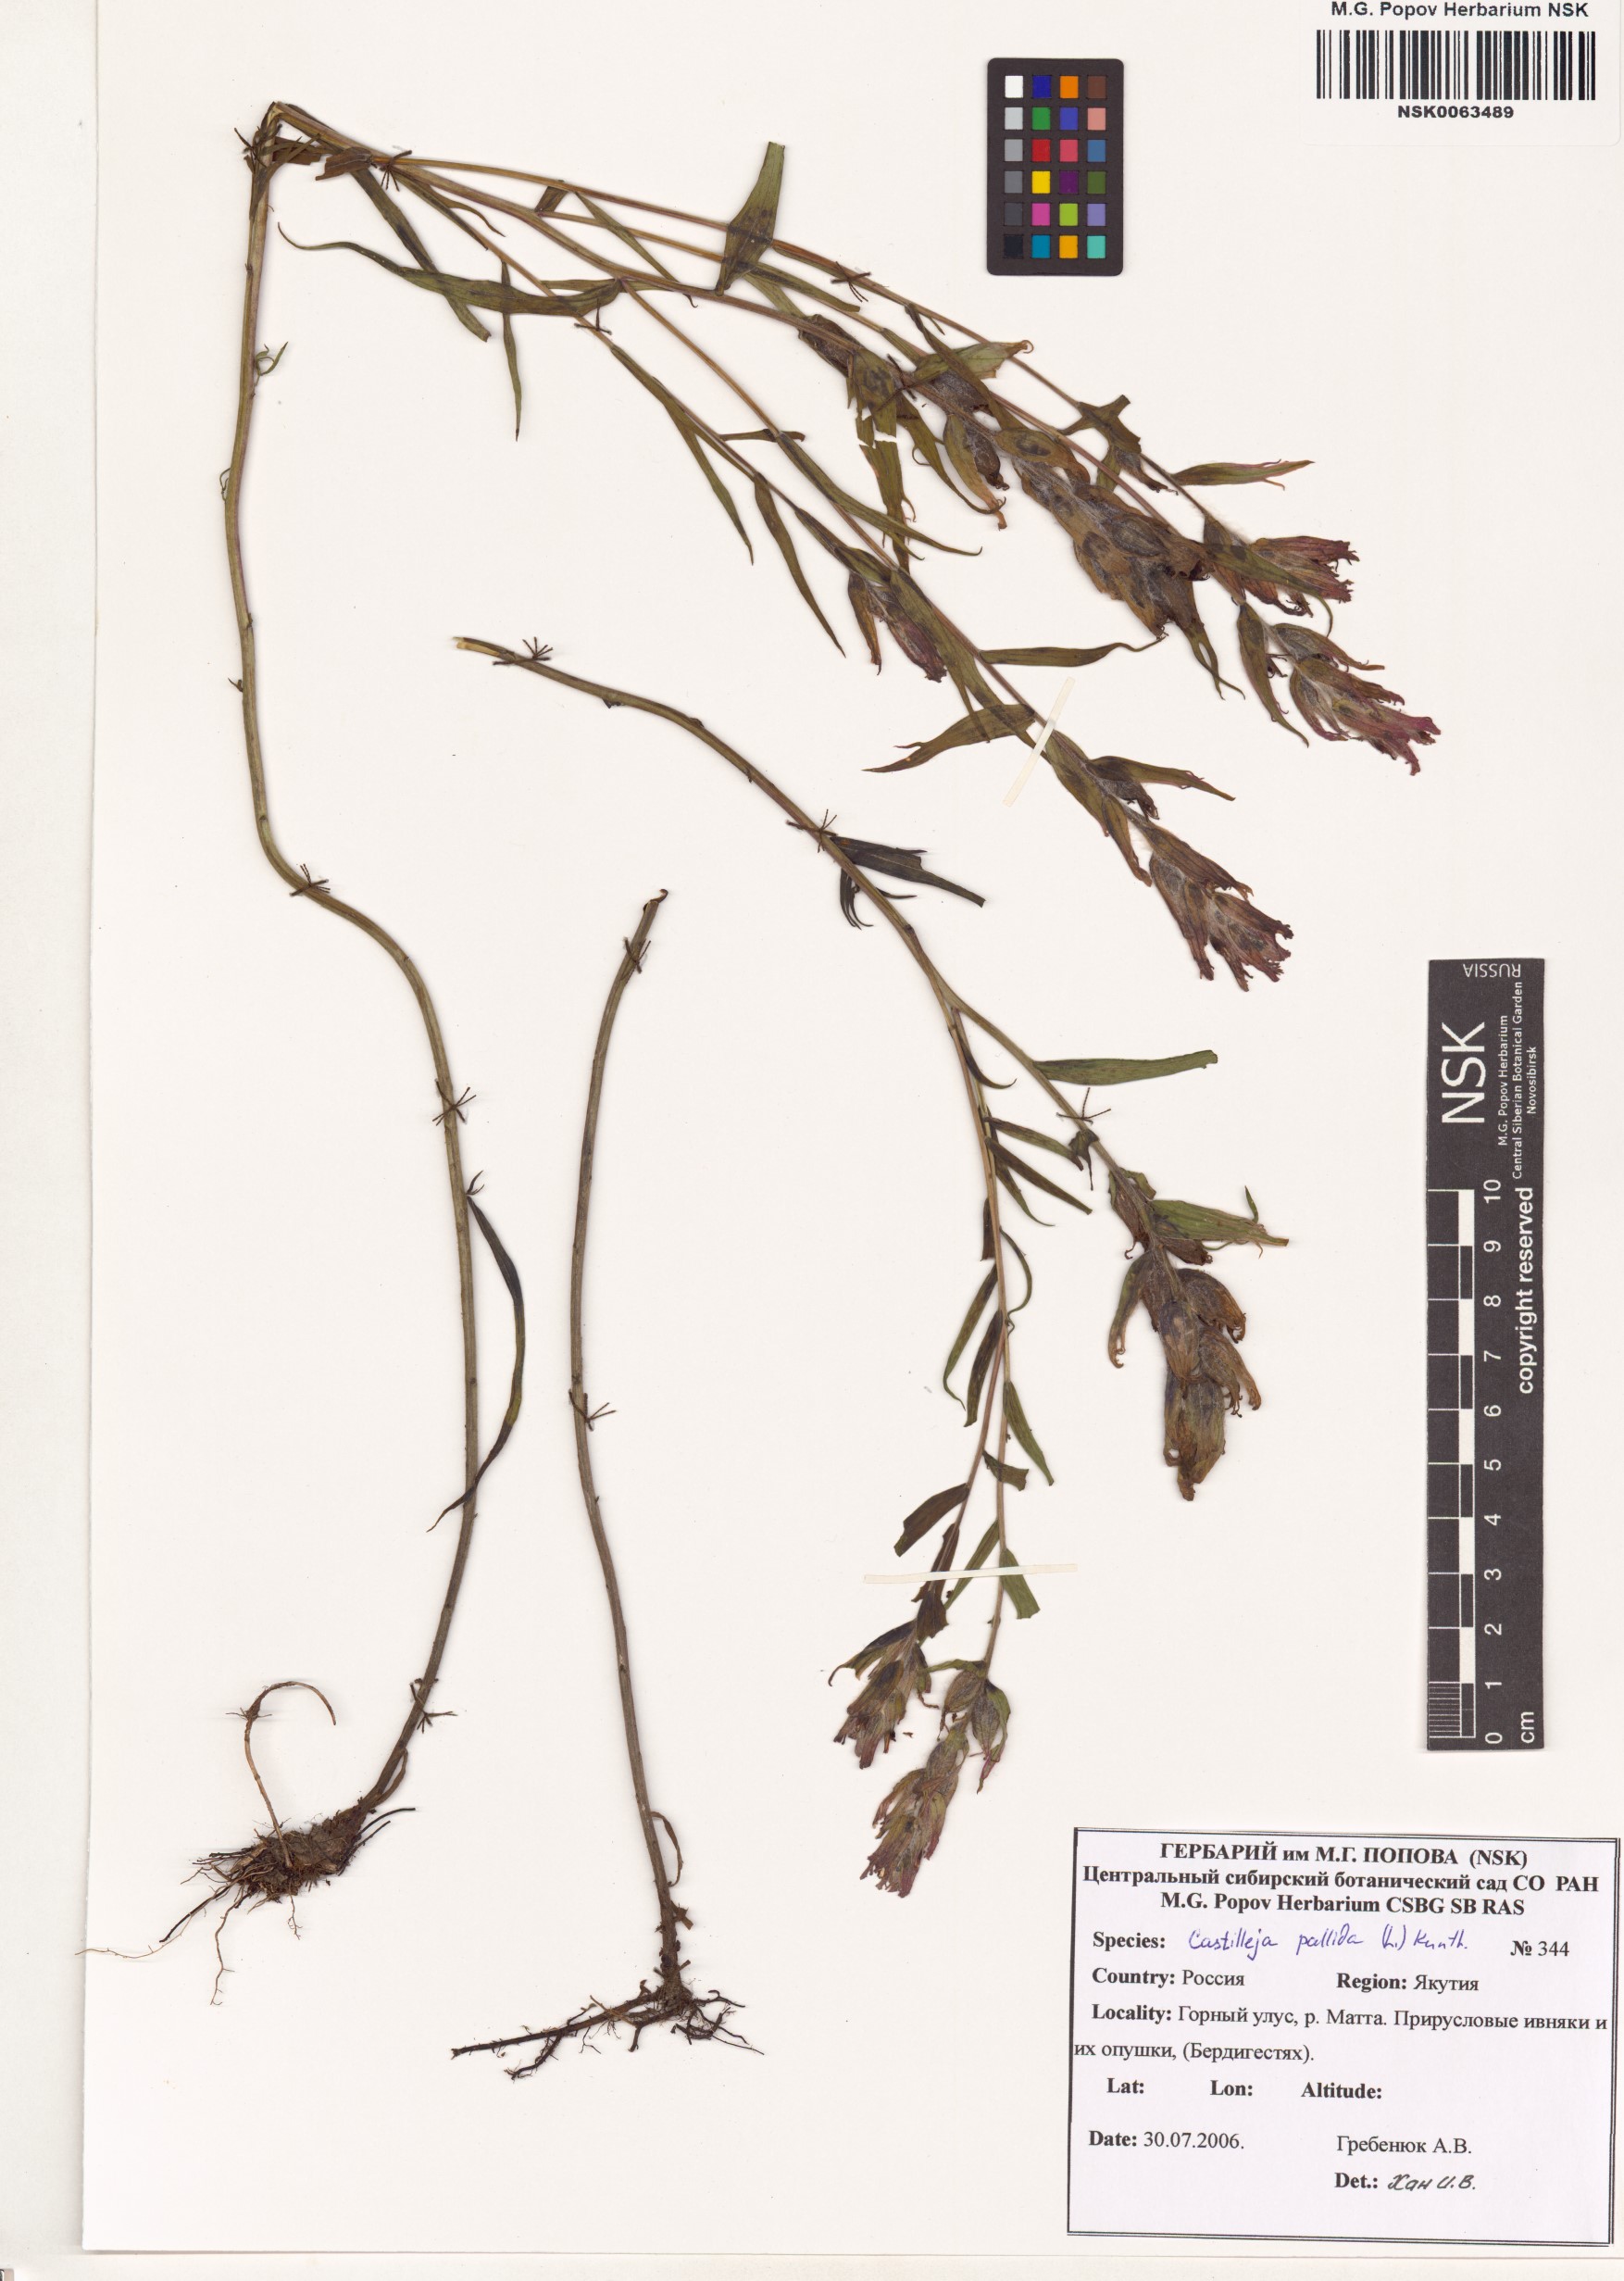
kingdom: Plantae
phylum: Tracheophyta
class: Magnoliopsida
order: Lamiales
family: Orobanchaceae
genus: Castilleja
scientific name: Castilleja pallida
